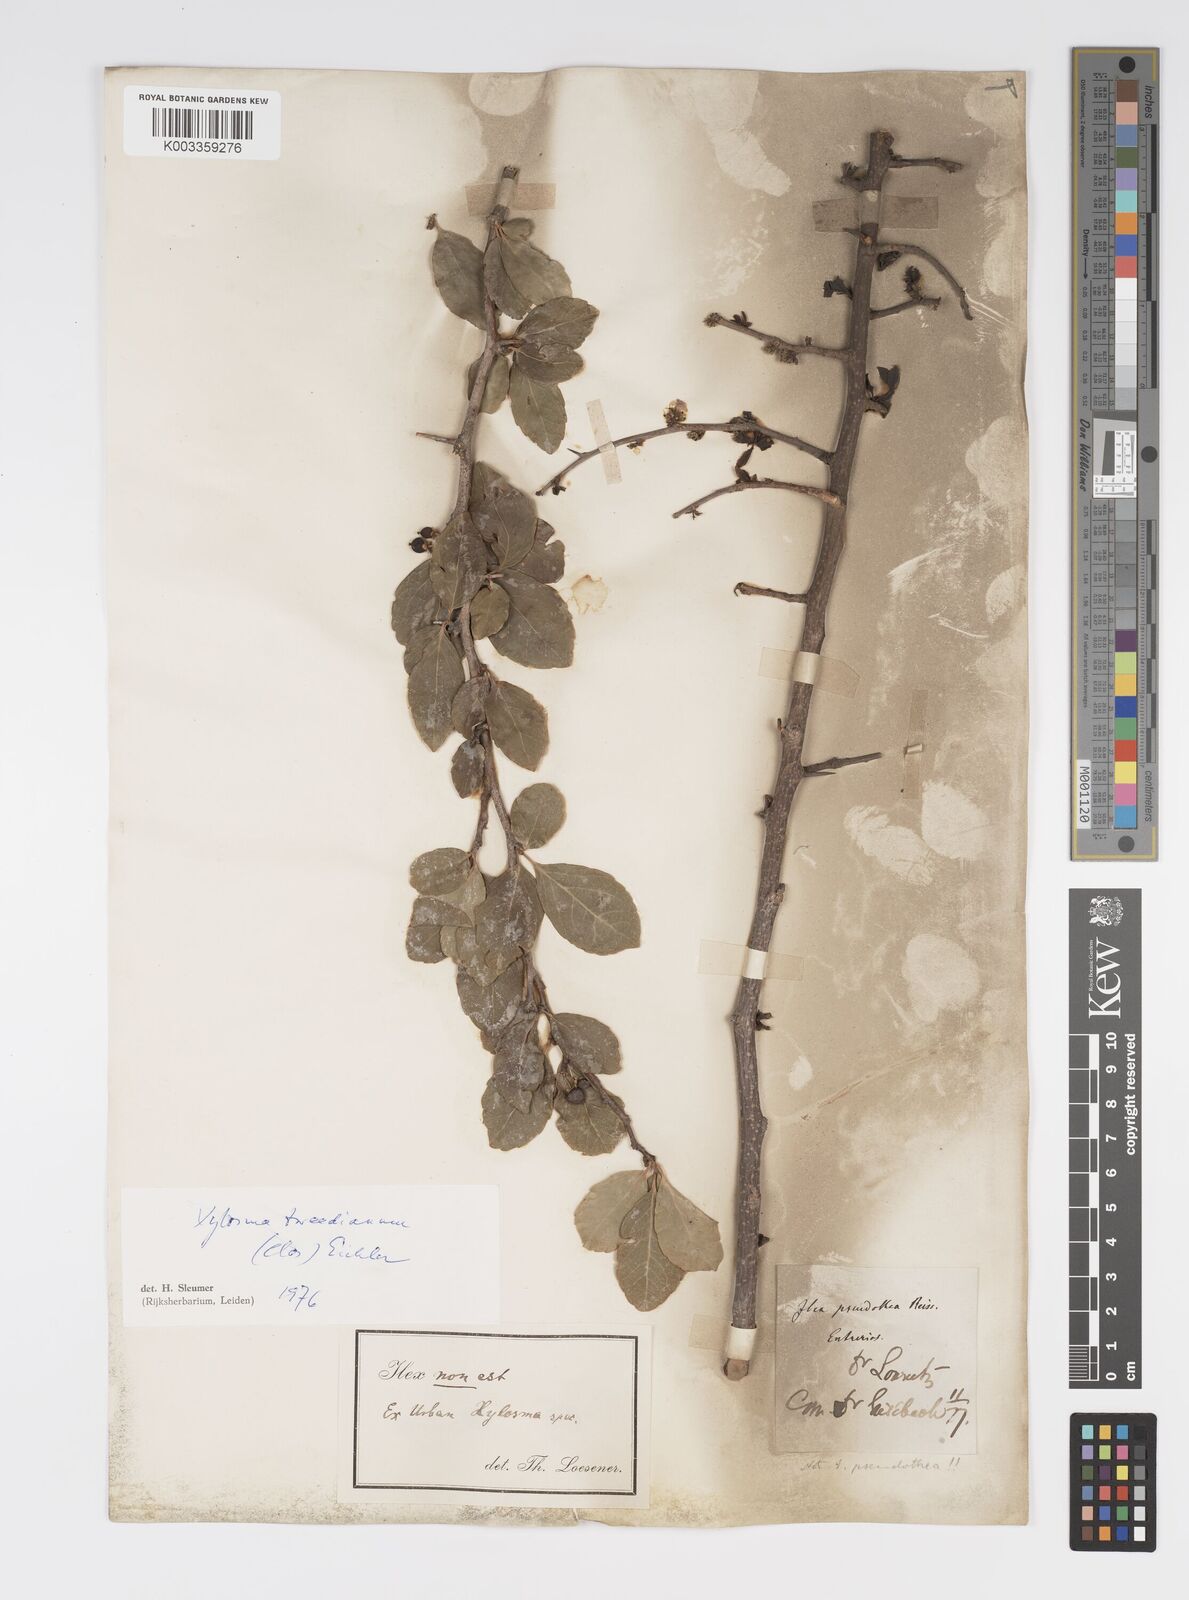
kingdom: Plantae
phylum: Tracheophyta
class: Magnoliopsida
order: Malpighiales
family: Salicaceae
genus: Xylosma
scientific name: Xylosma venosa
